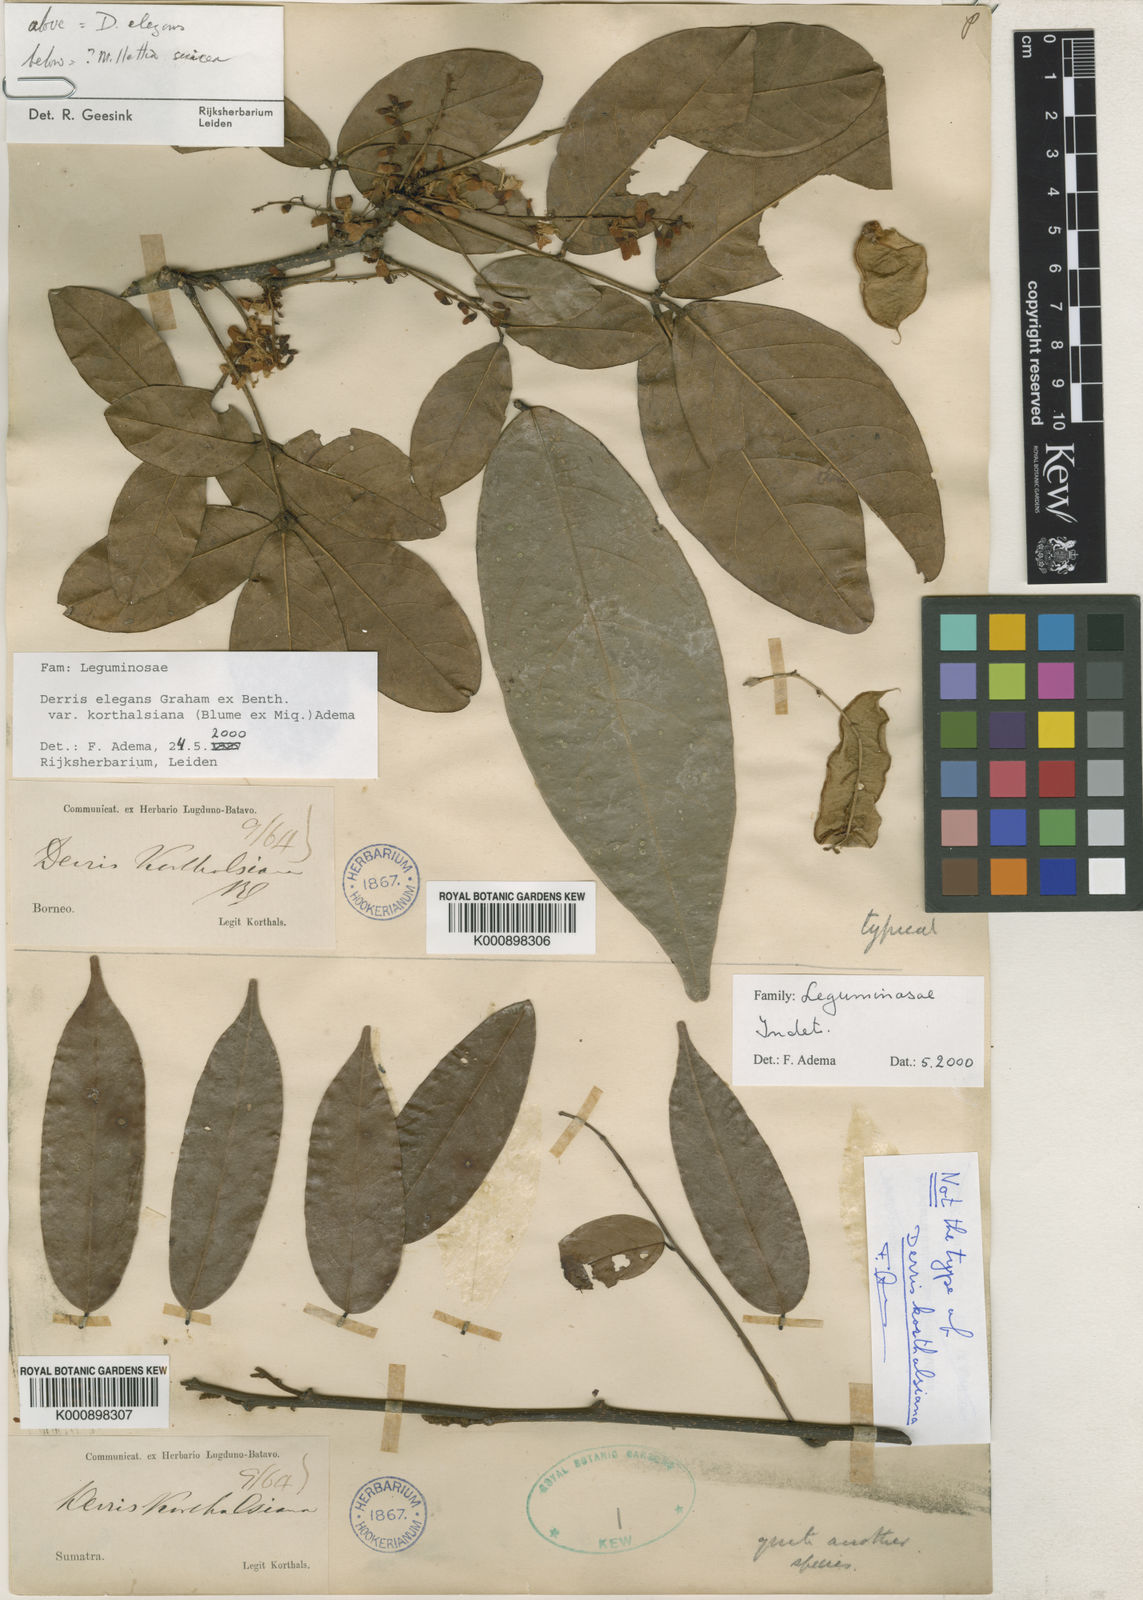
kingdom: Plantae
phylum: Tracheophyta
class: Magnoliopsida
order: Fabales
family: Fabaceae
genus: Derris
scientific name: Derris elegans
